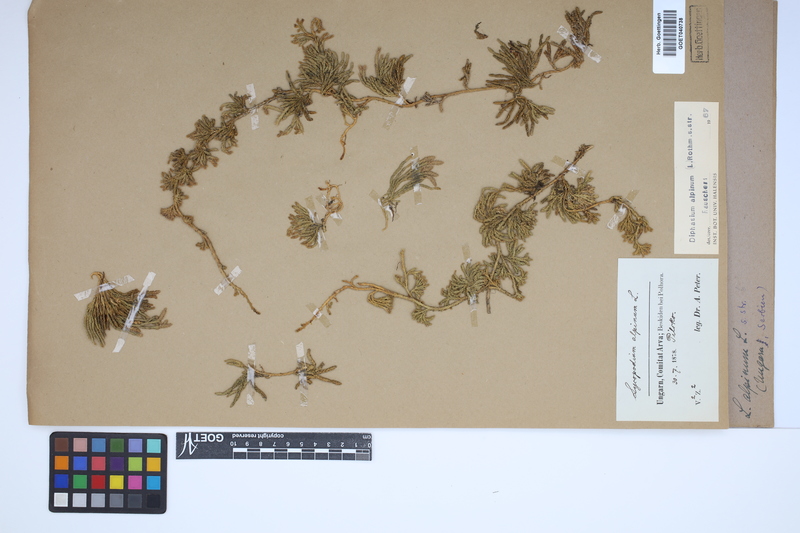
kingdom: Plantae
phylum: Tracheophyta
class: Lycopodiopsida
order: Lycopodiales
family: Lycopodiaceae
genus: Diphasiastrum
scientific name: Diphasiastrum alpinum
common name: Alpine clubmoss
